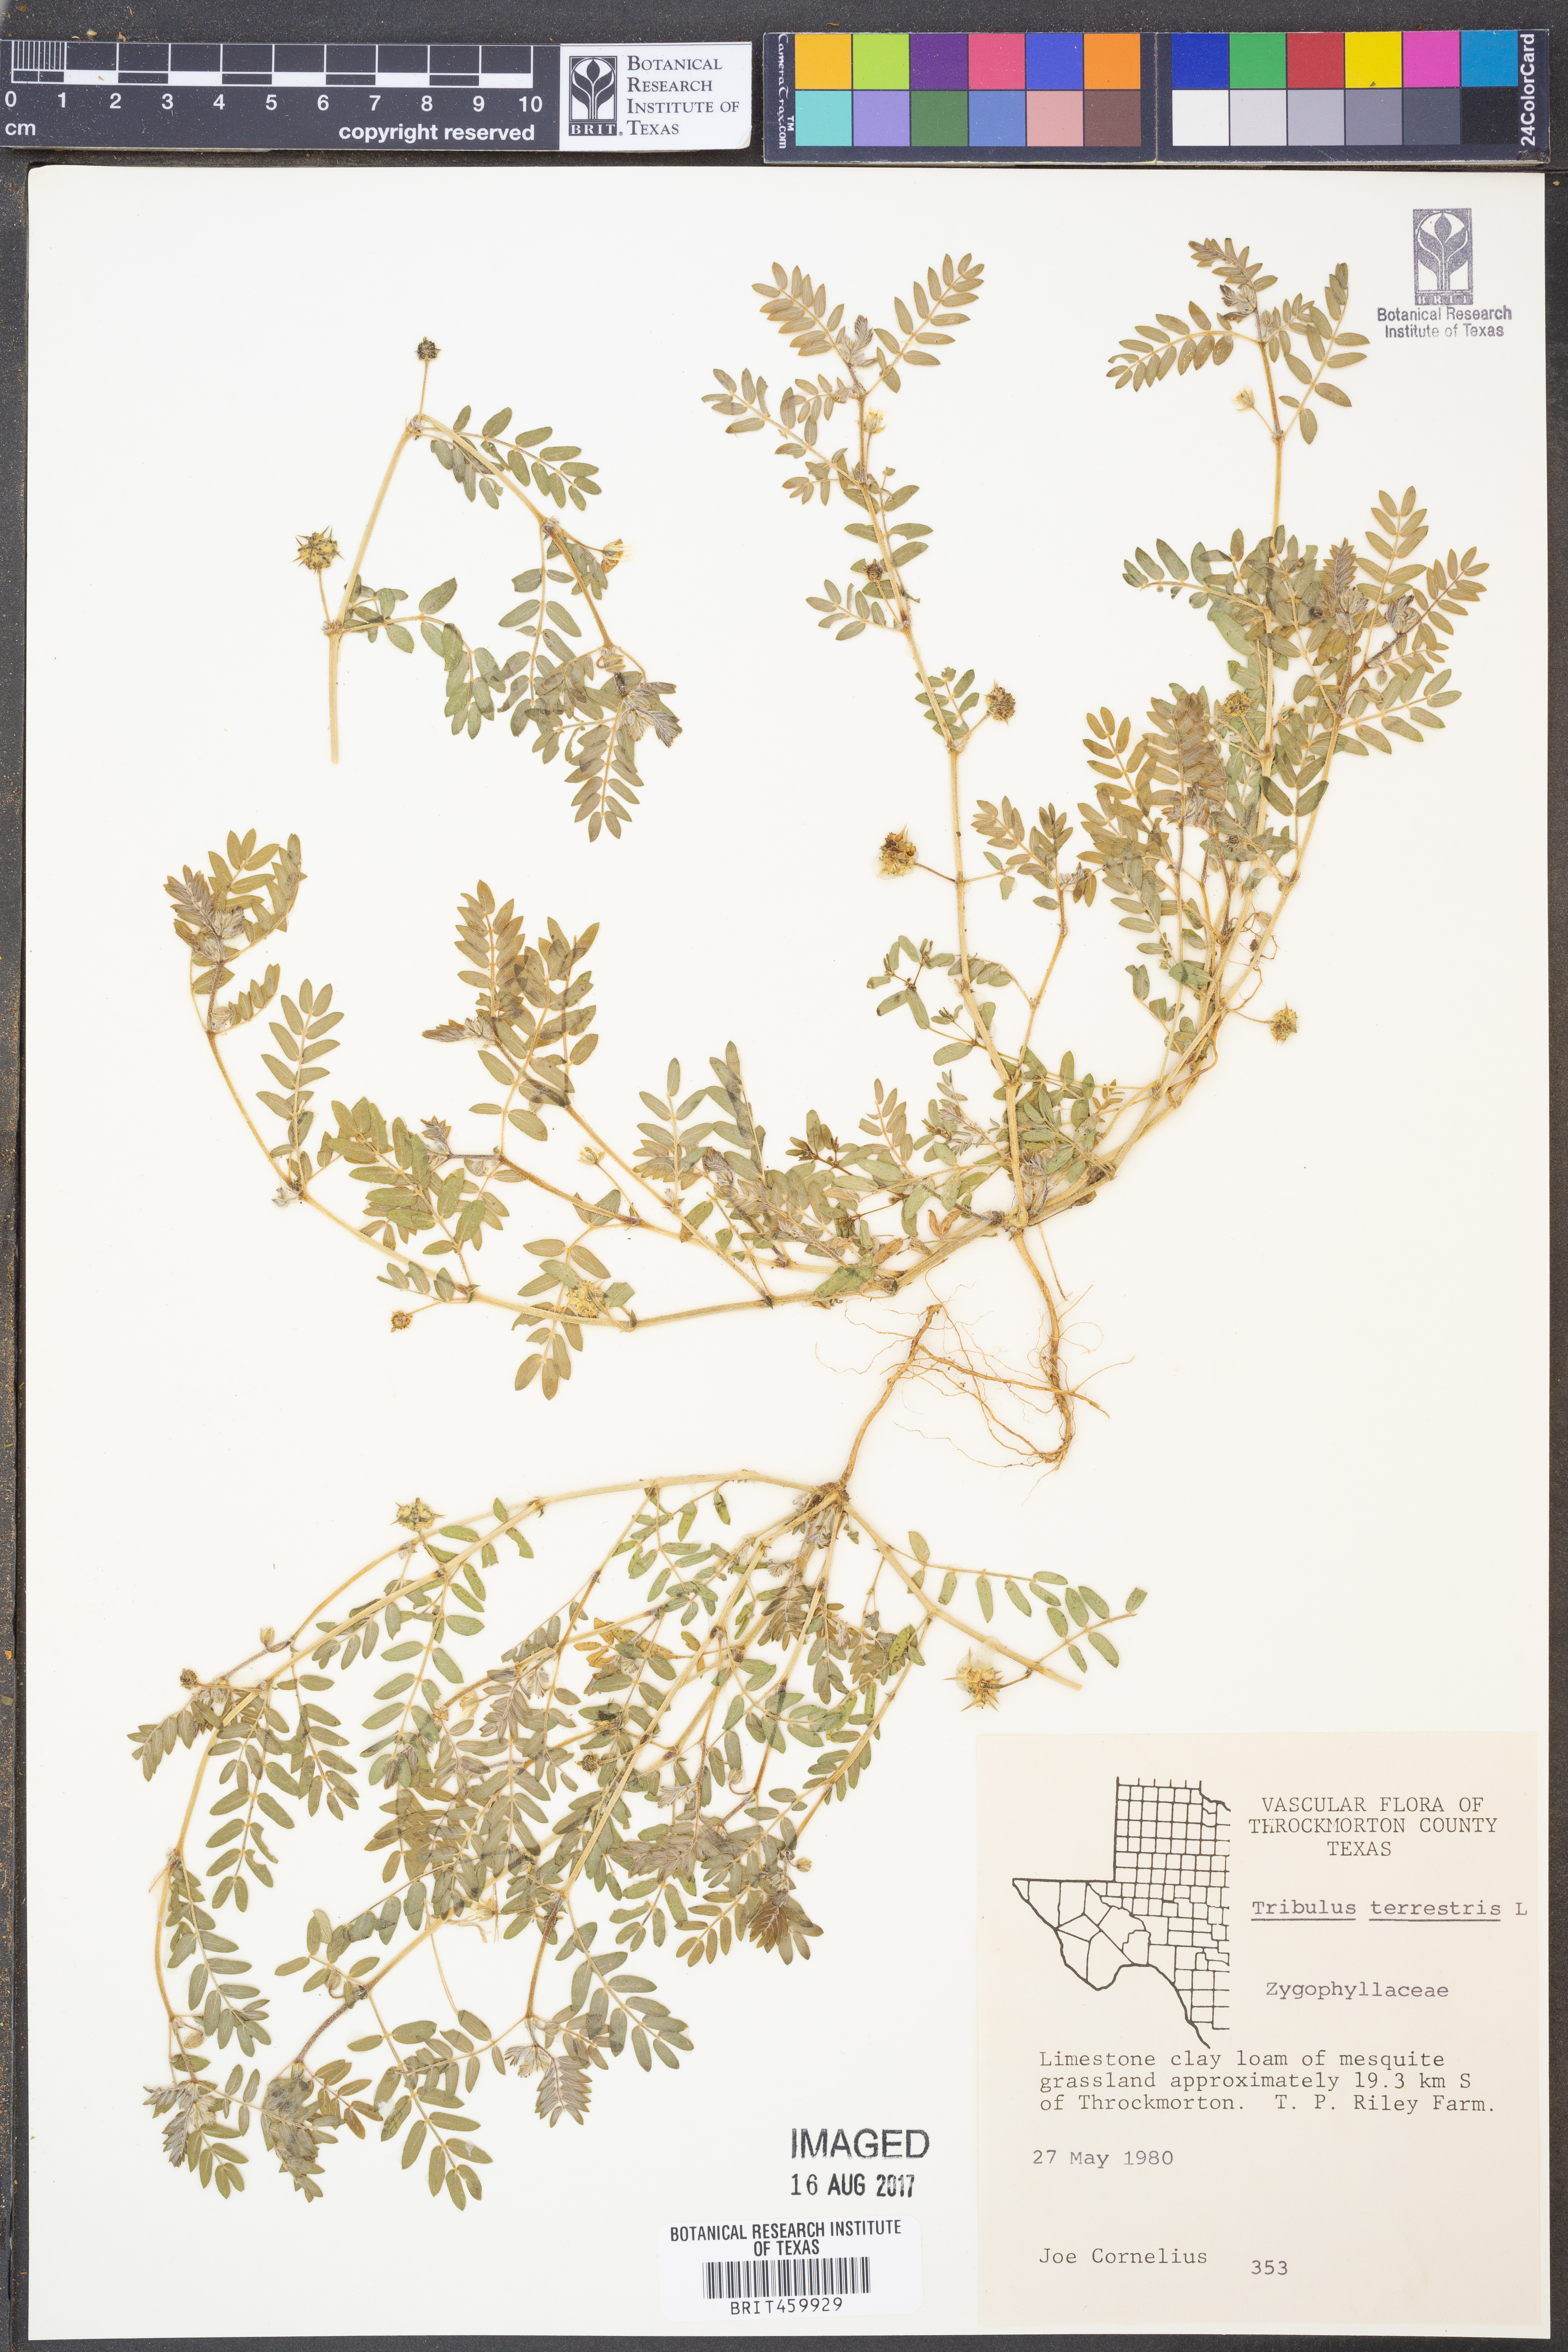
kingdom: Plantae
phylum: Tracheophyta
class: Magnoliopsida
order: Zygophyllales
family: Zygophyllaceae
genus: Tribulus
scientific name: Tribulus terrestris
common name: Puncturevine
